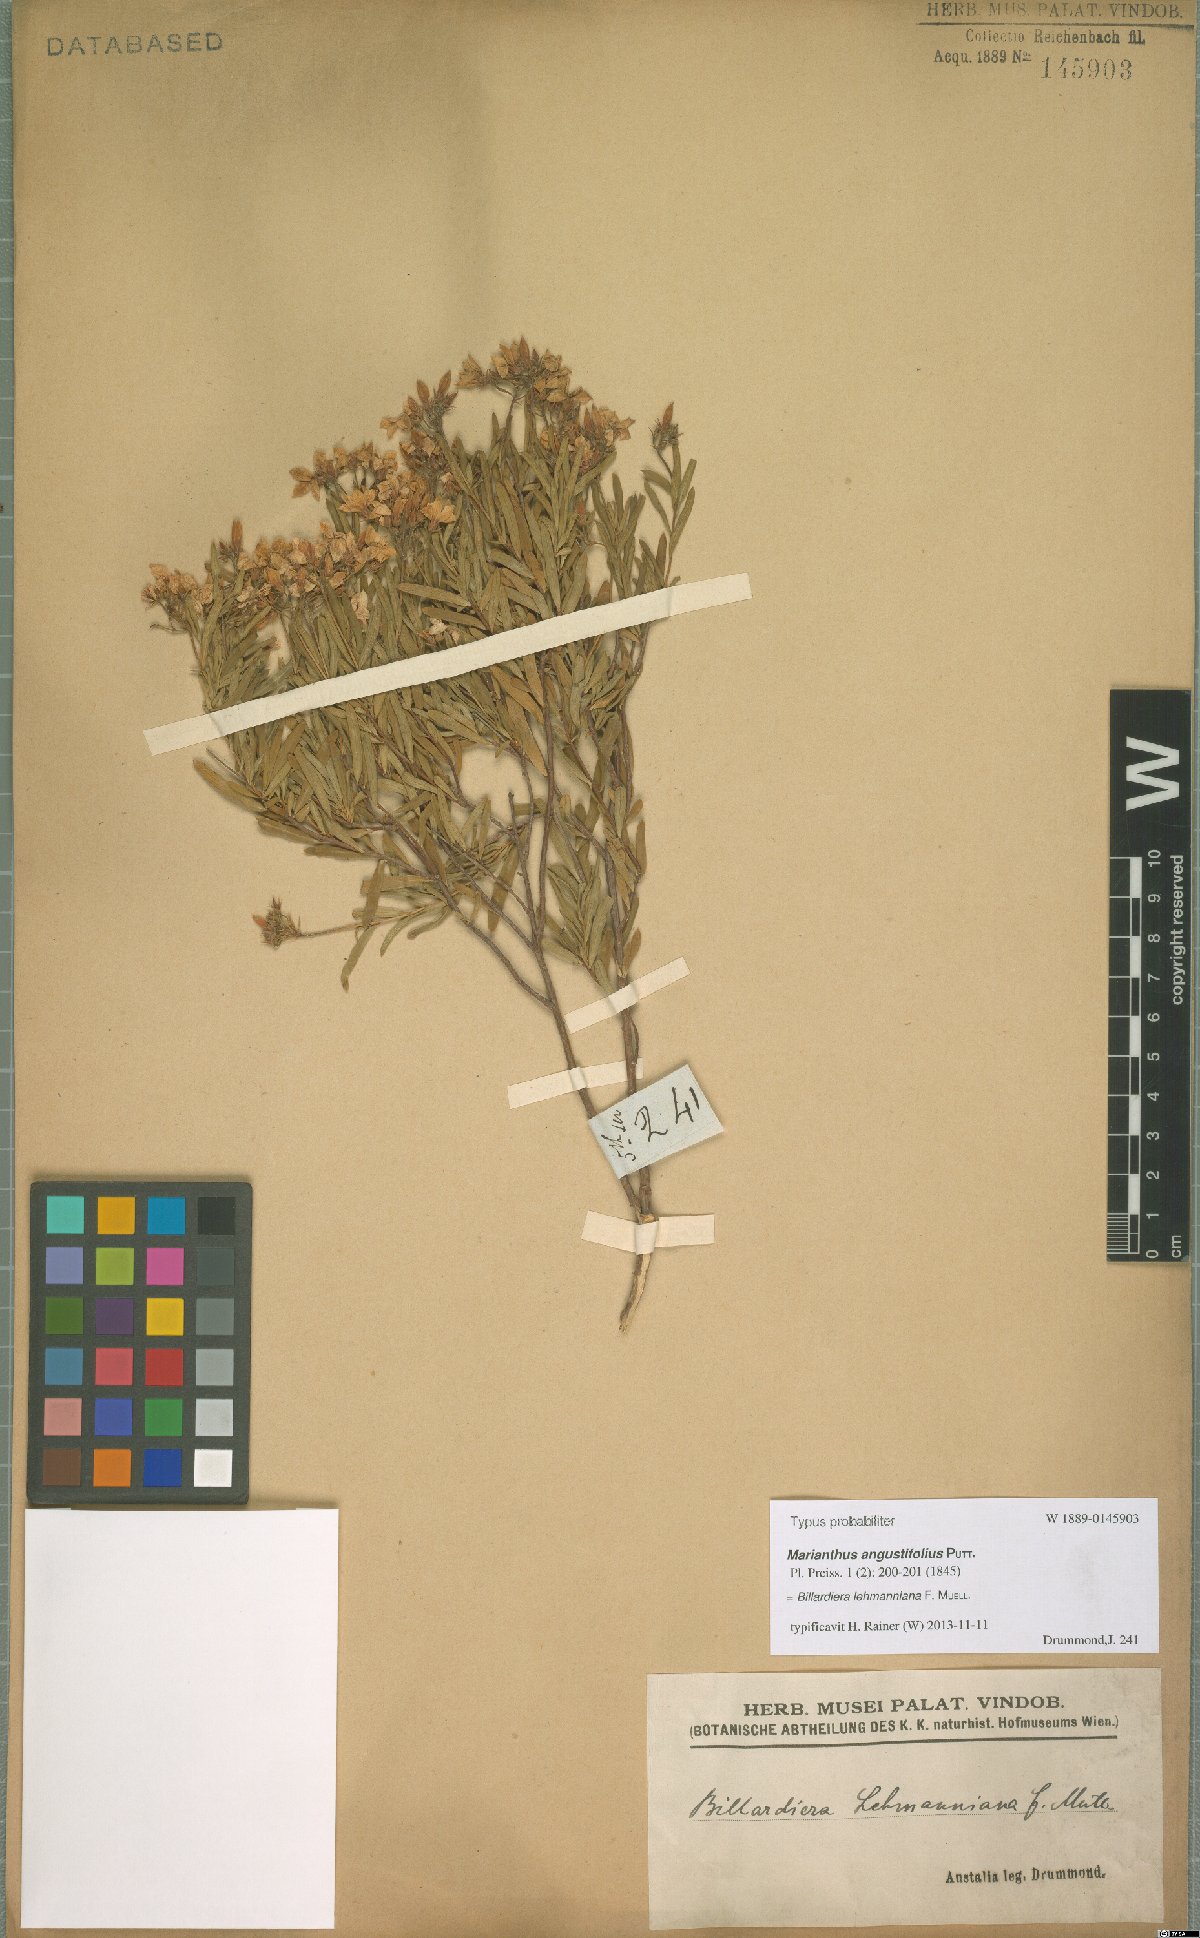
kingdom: Plantae
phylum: Tracheophyta
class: Magnoliopsida
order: Apiales
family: Pittosporaceae
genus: Billardiera
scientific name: Billardiera lehmanniana
